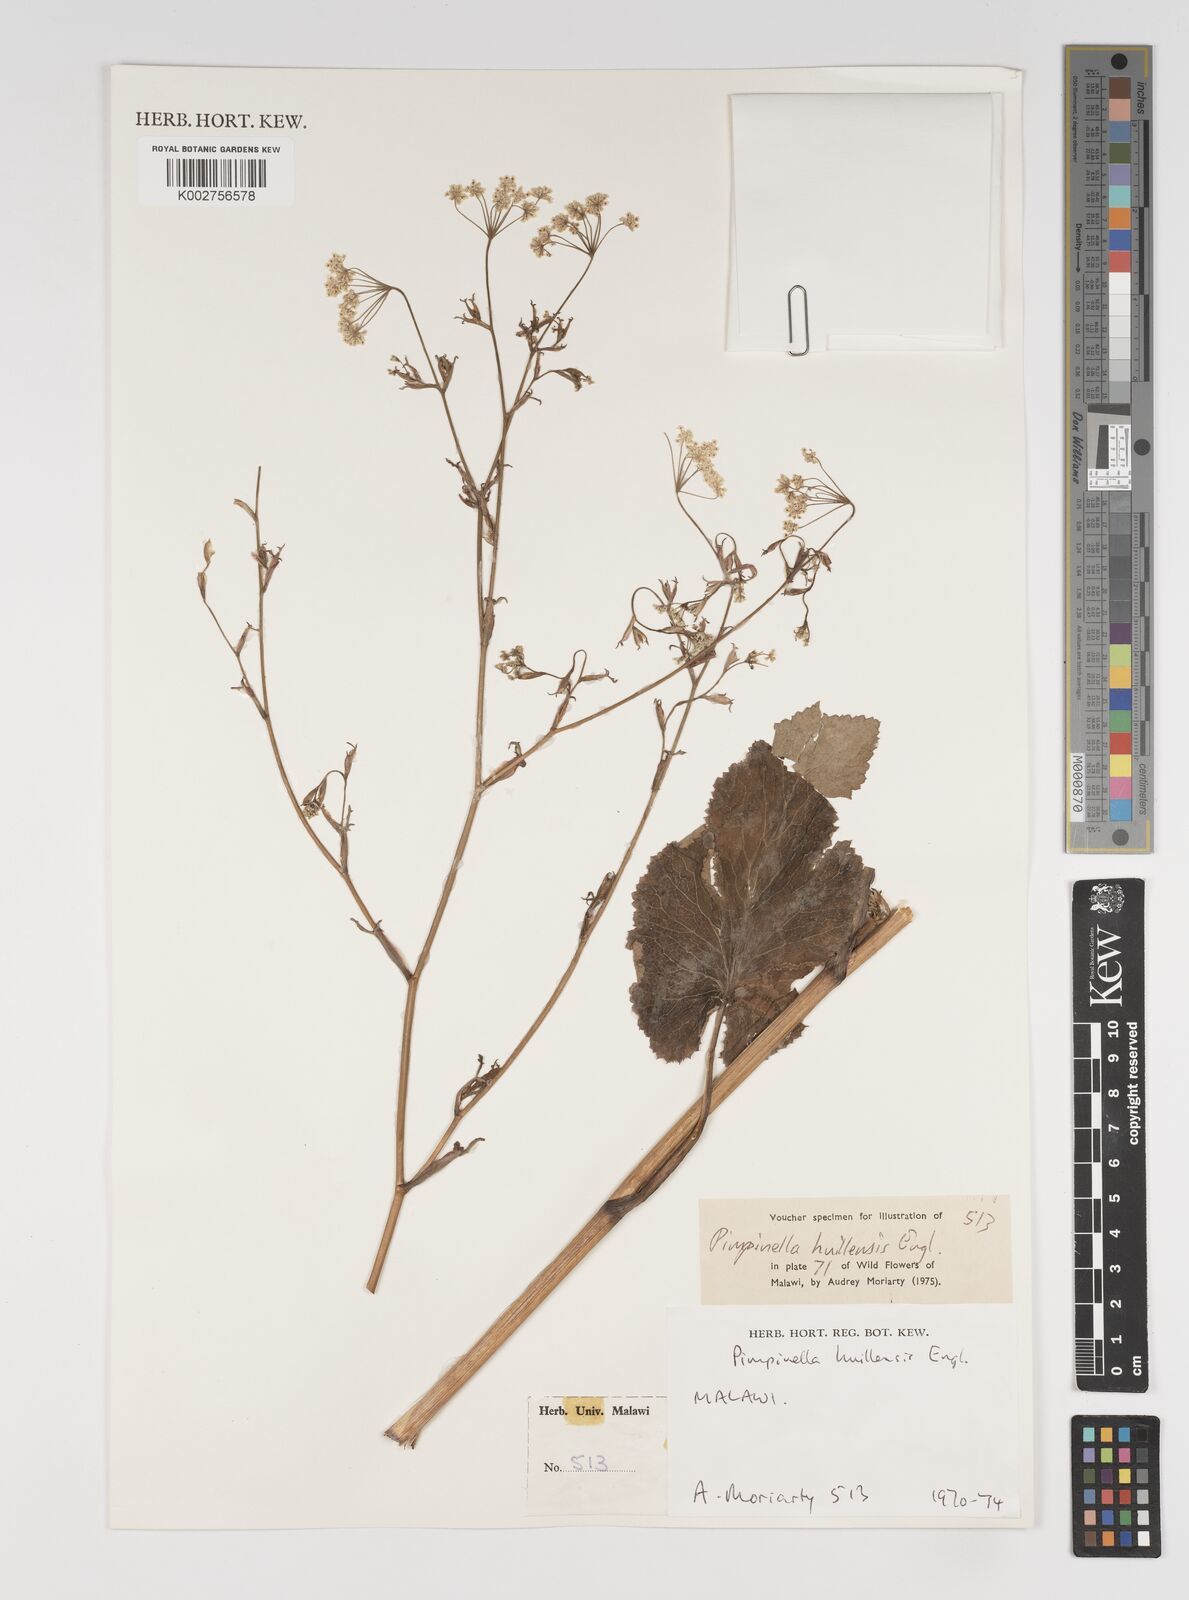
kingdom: Plantae
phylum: Tracheophyta
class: Magnoliopsida
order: Apiales
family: Apiaceae
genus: Pimpinella
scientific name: Pimpinella huillensis
